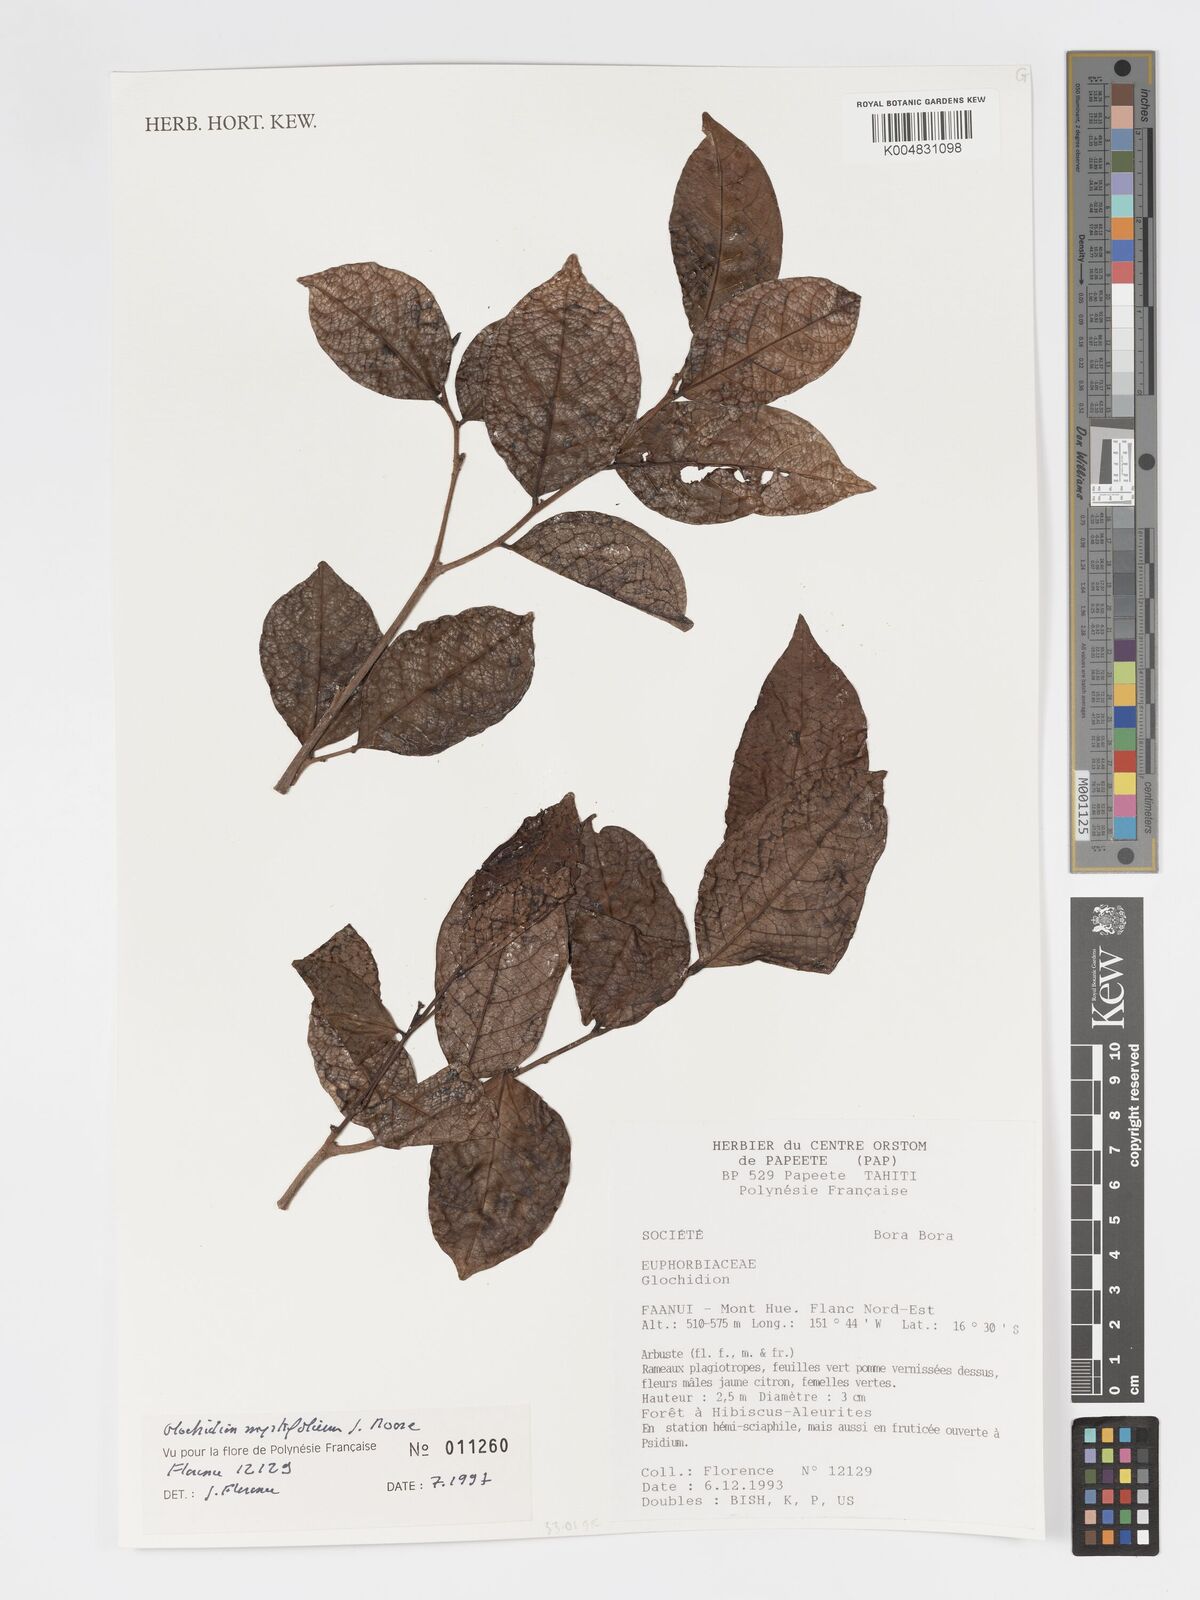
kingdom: Plantae
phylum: Tracheophyta
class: Magnoliopsida
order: Malpighiales
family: Phyllanthaceae
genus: Glochidion
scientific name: Glochidion myrtifolium
